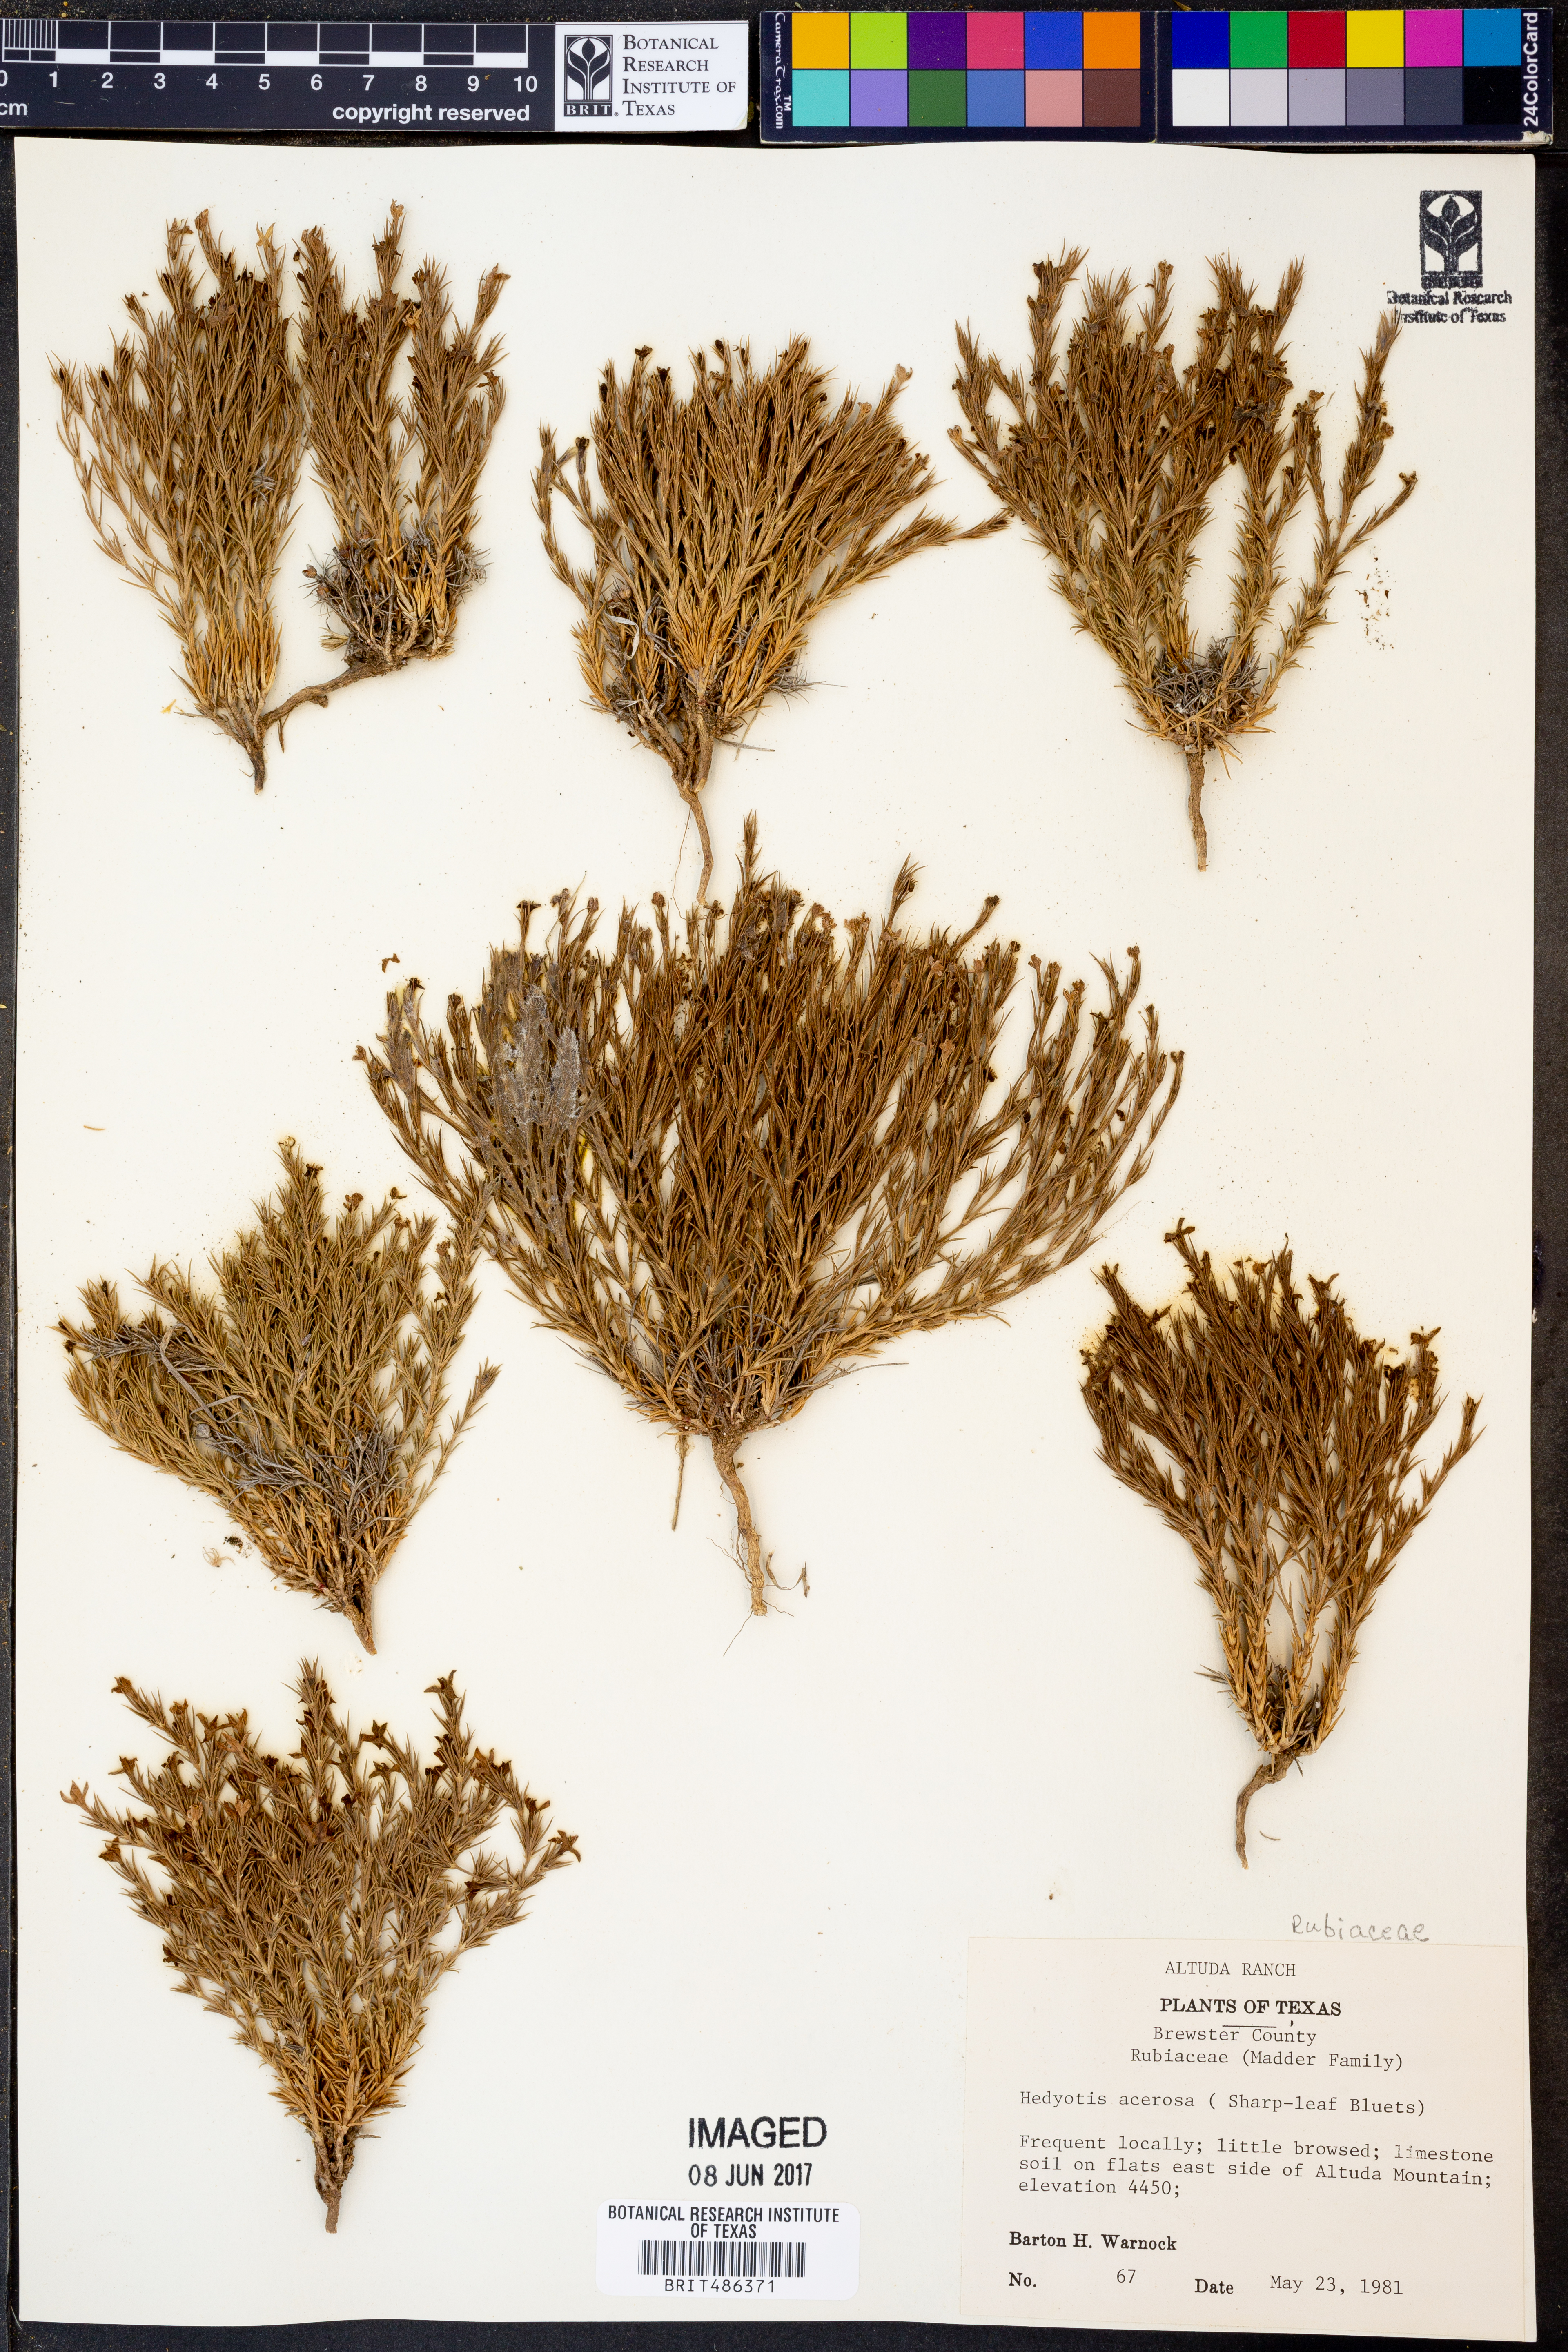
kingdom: Plantae
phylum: Tracheophyta
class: Magnoliopsida
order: Gentianales
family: Rubiaceae
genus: Houstonia
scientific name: Houstonia acerosa
